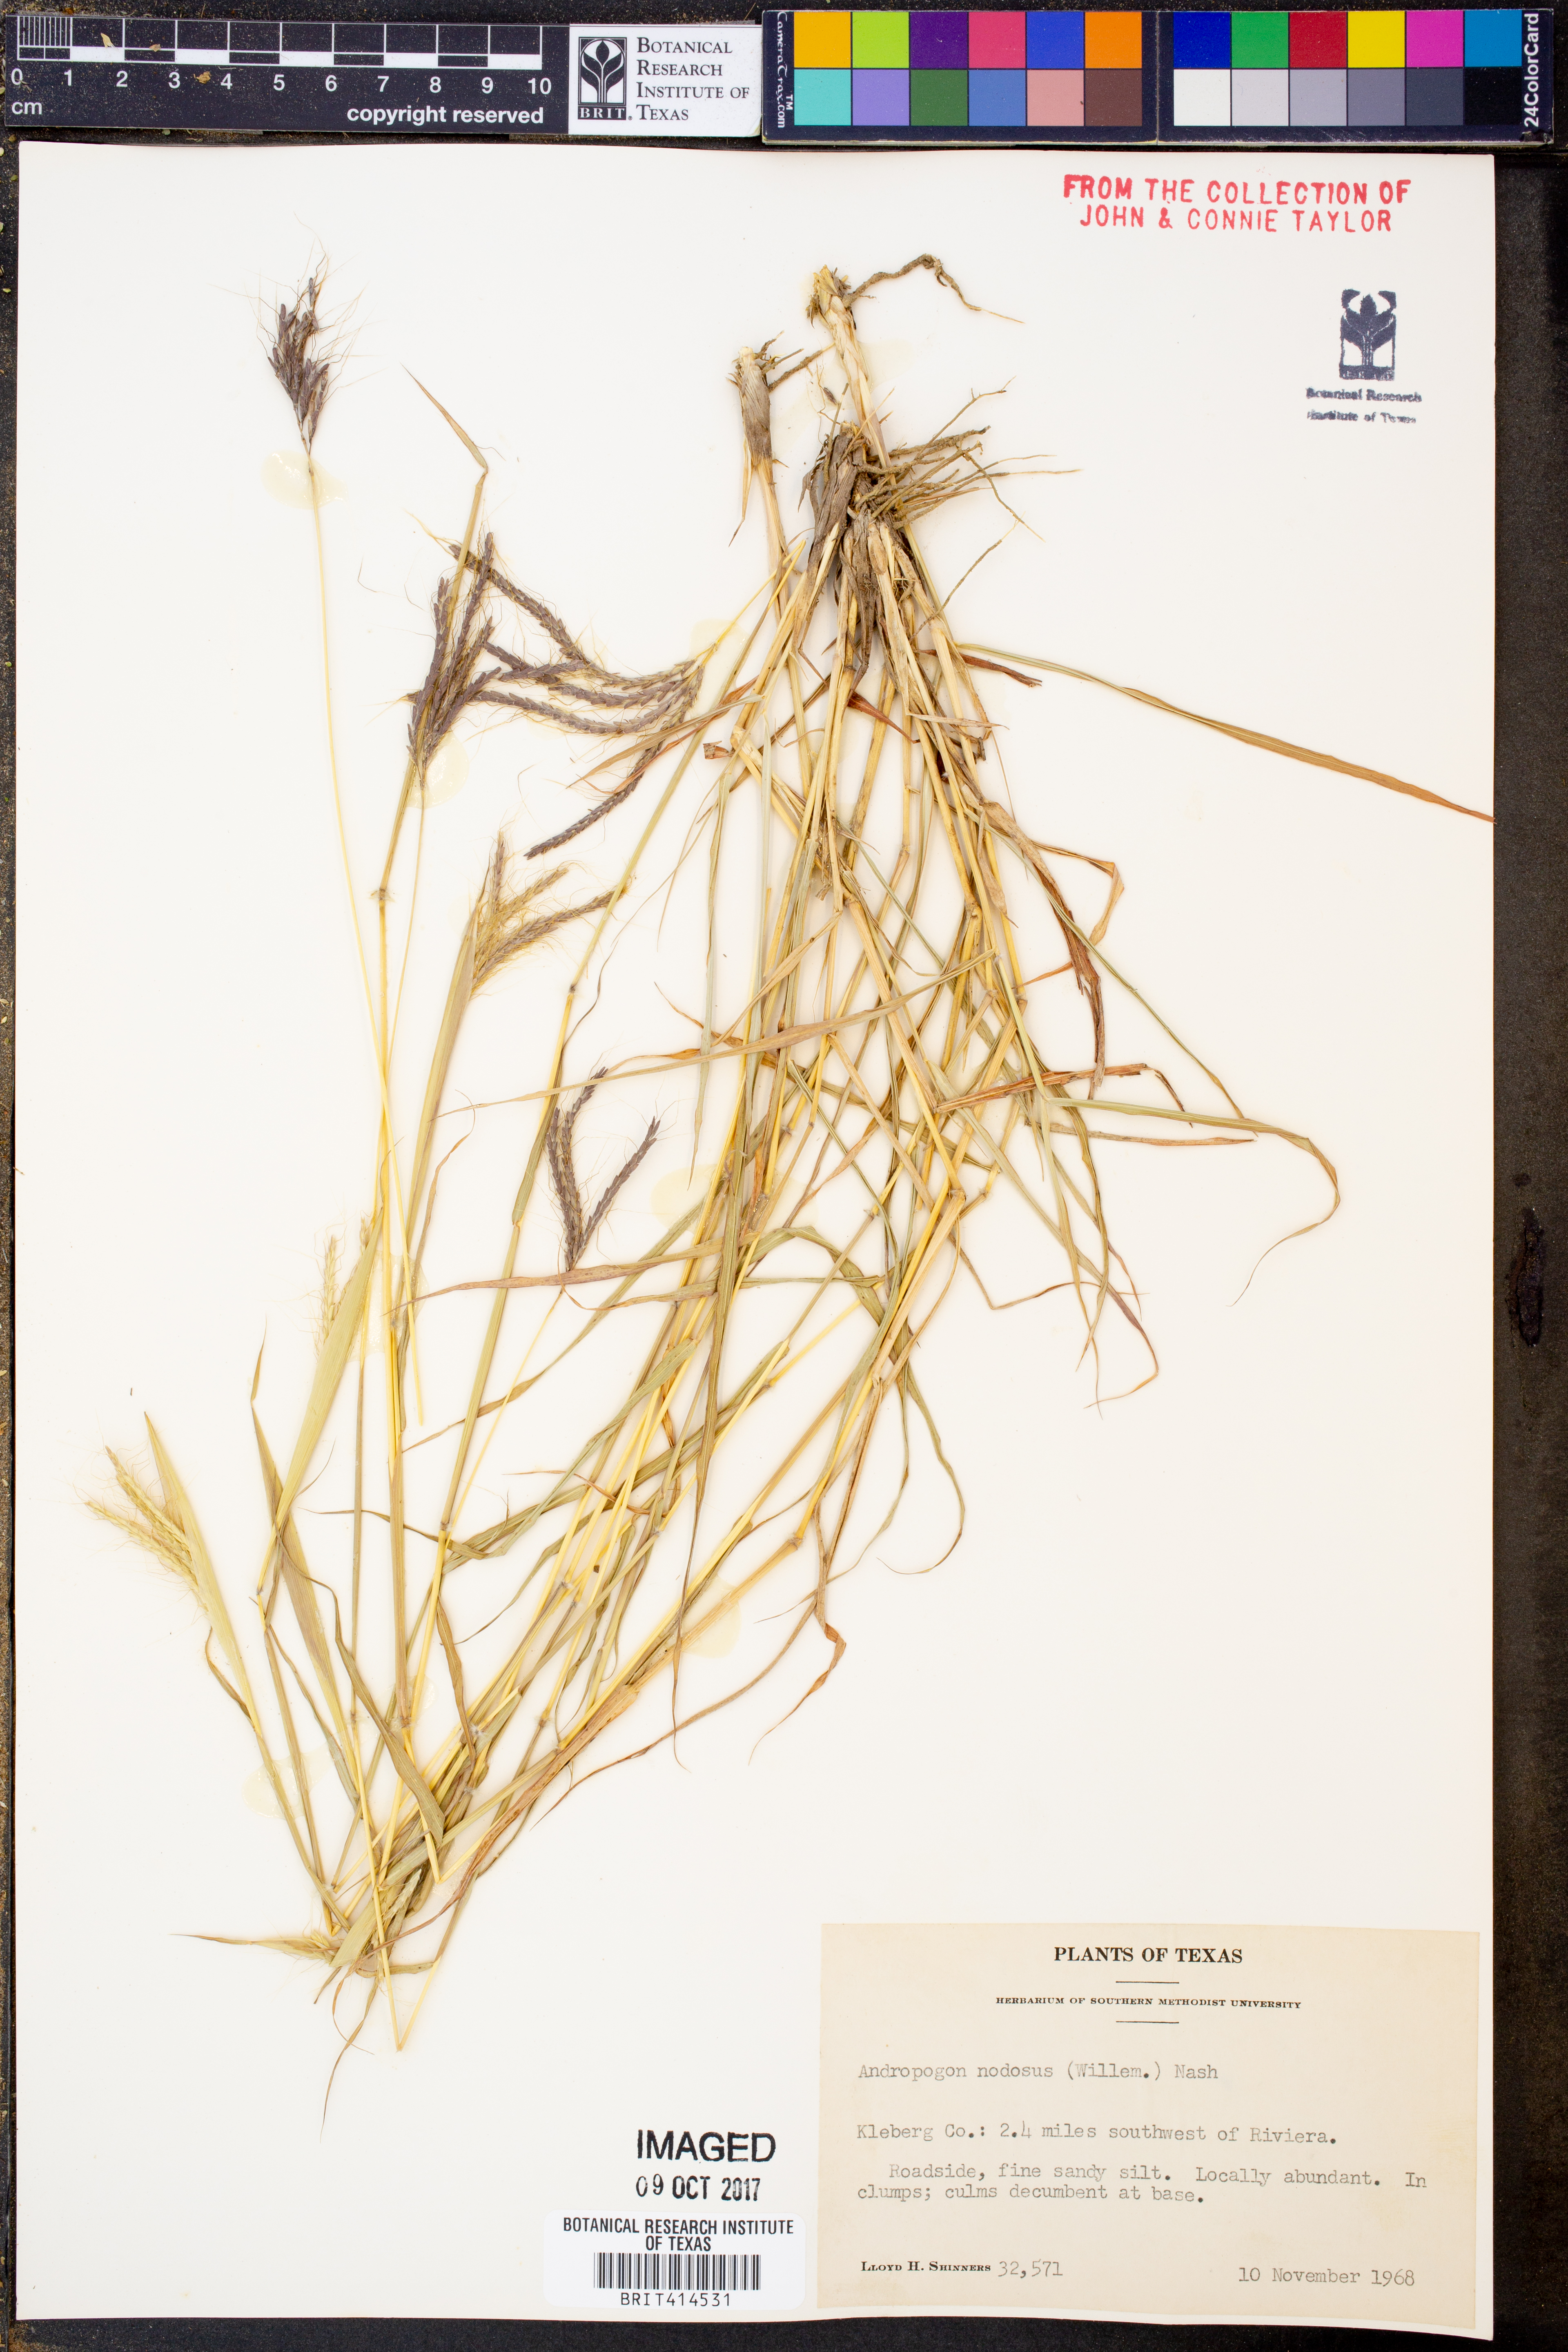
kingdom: Plantae
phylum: Tracheophyta
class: Liliopsida
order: Poales
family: Poaceae
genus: Dichanthium
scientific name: Dichanthium annulatum
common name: Kleberg's bluestem
